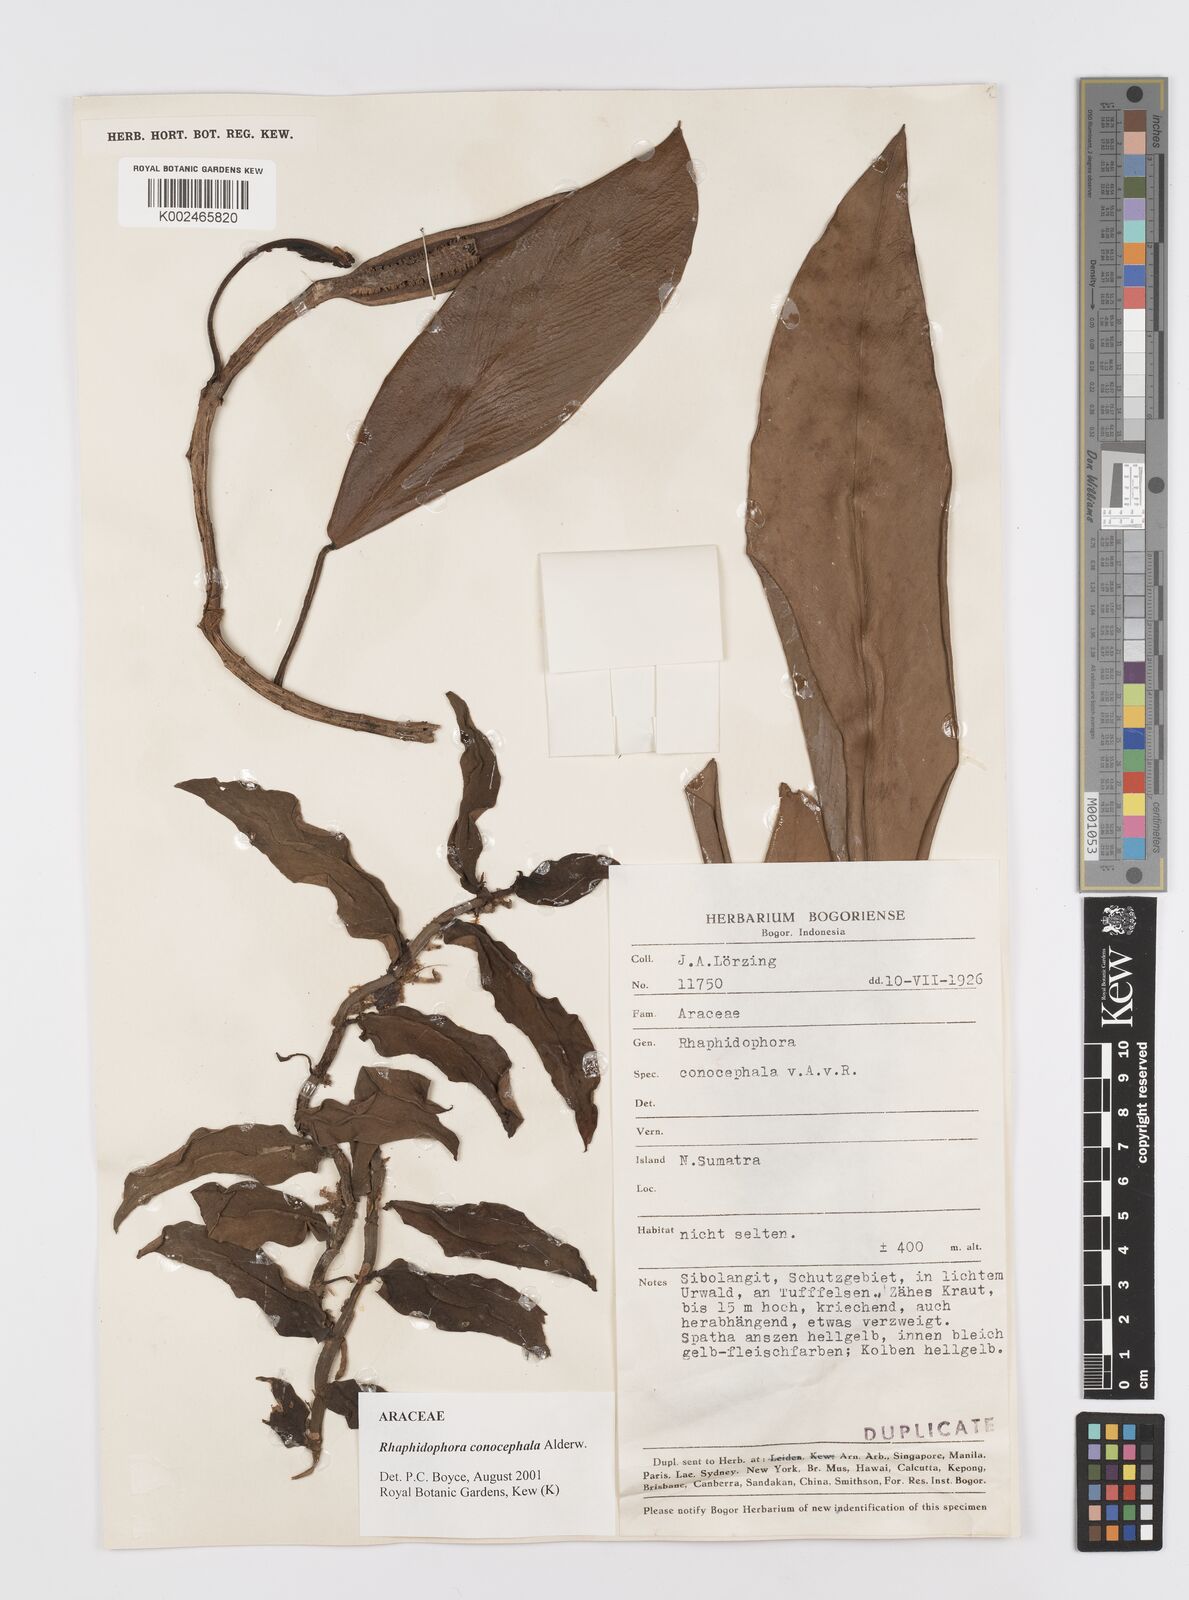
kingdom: Plantae
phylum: Tracheophyta
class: Liliopsida
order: Alismatales
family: Araceae
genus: Rhaphidophora
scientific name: Rhaphidophora conocephala
